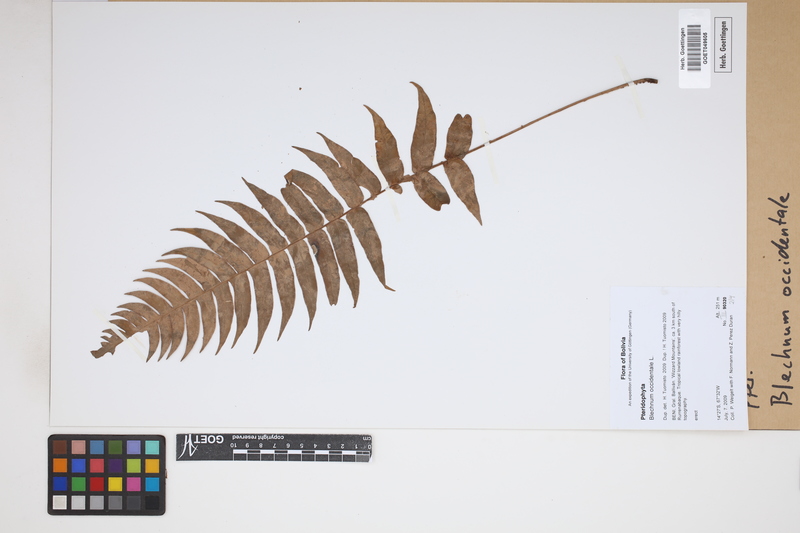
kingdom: Plantae
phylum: Tracheophyta
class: Polypodiopsida
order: Polypodiales
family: Blechnaceae
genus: Blechnum
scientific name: Blechnum occidentale
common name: Hammock fern
